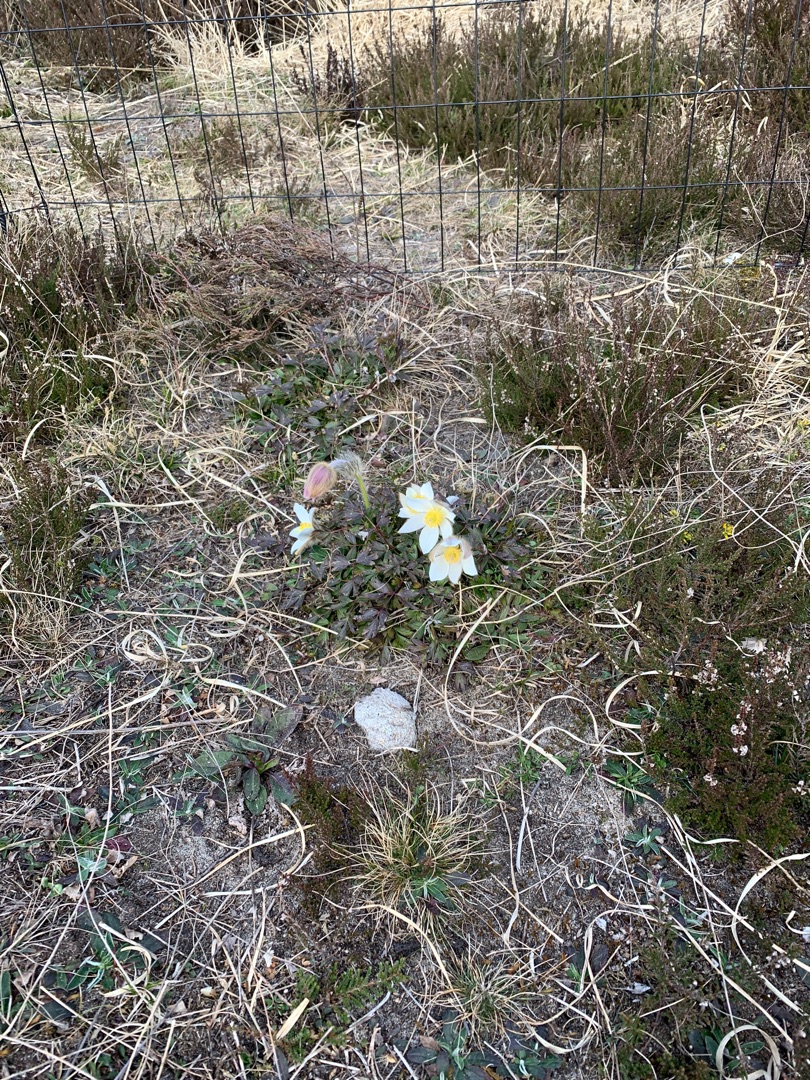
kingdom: Plantae
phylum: Tracheophyta
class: Magnoliopsida
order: Ranunculales
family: Ranunculaceae
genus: Pulsatilla
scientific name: Pulsatilla vernalis
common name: Vår-kobjælde
